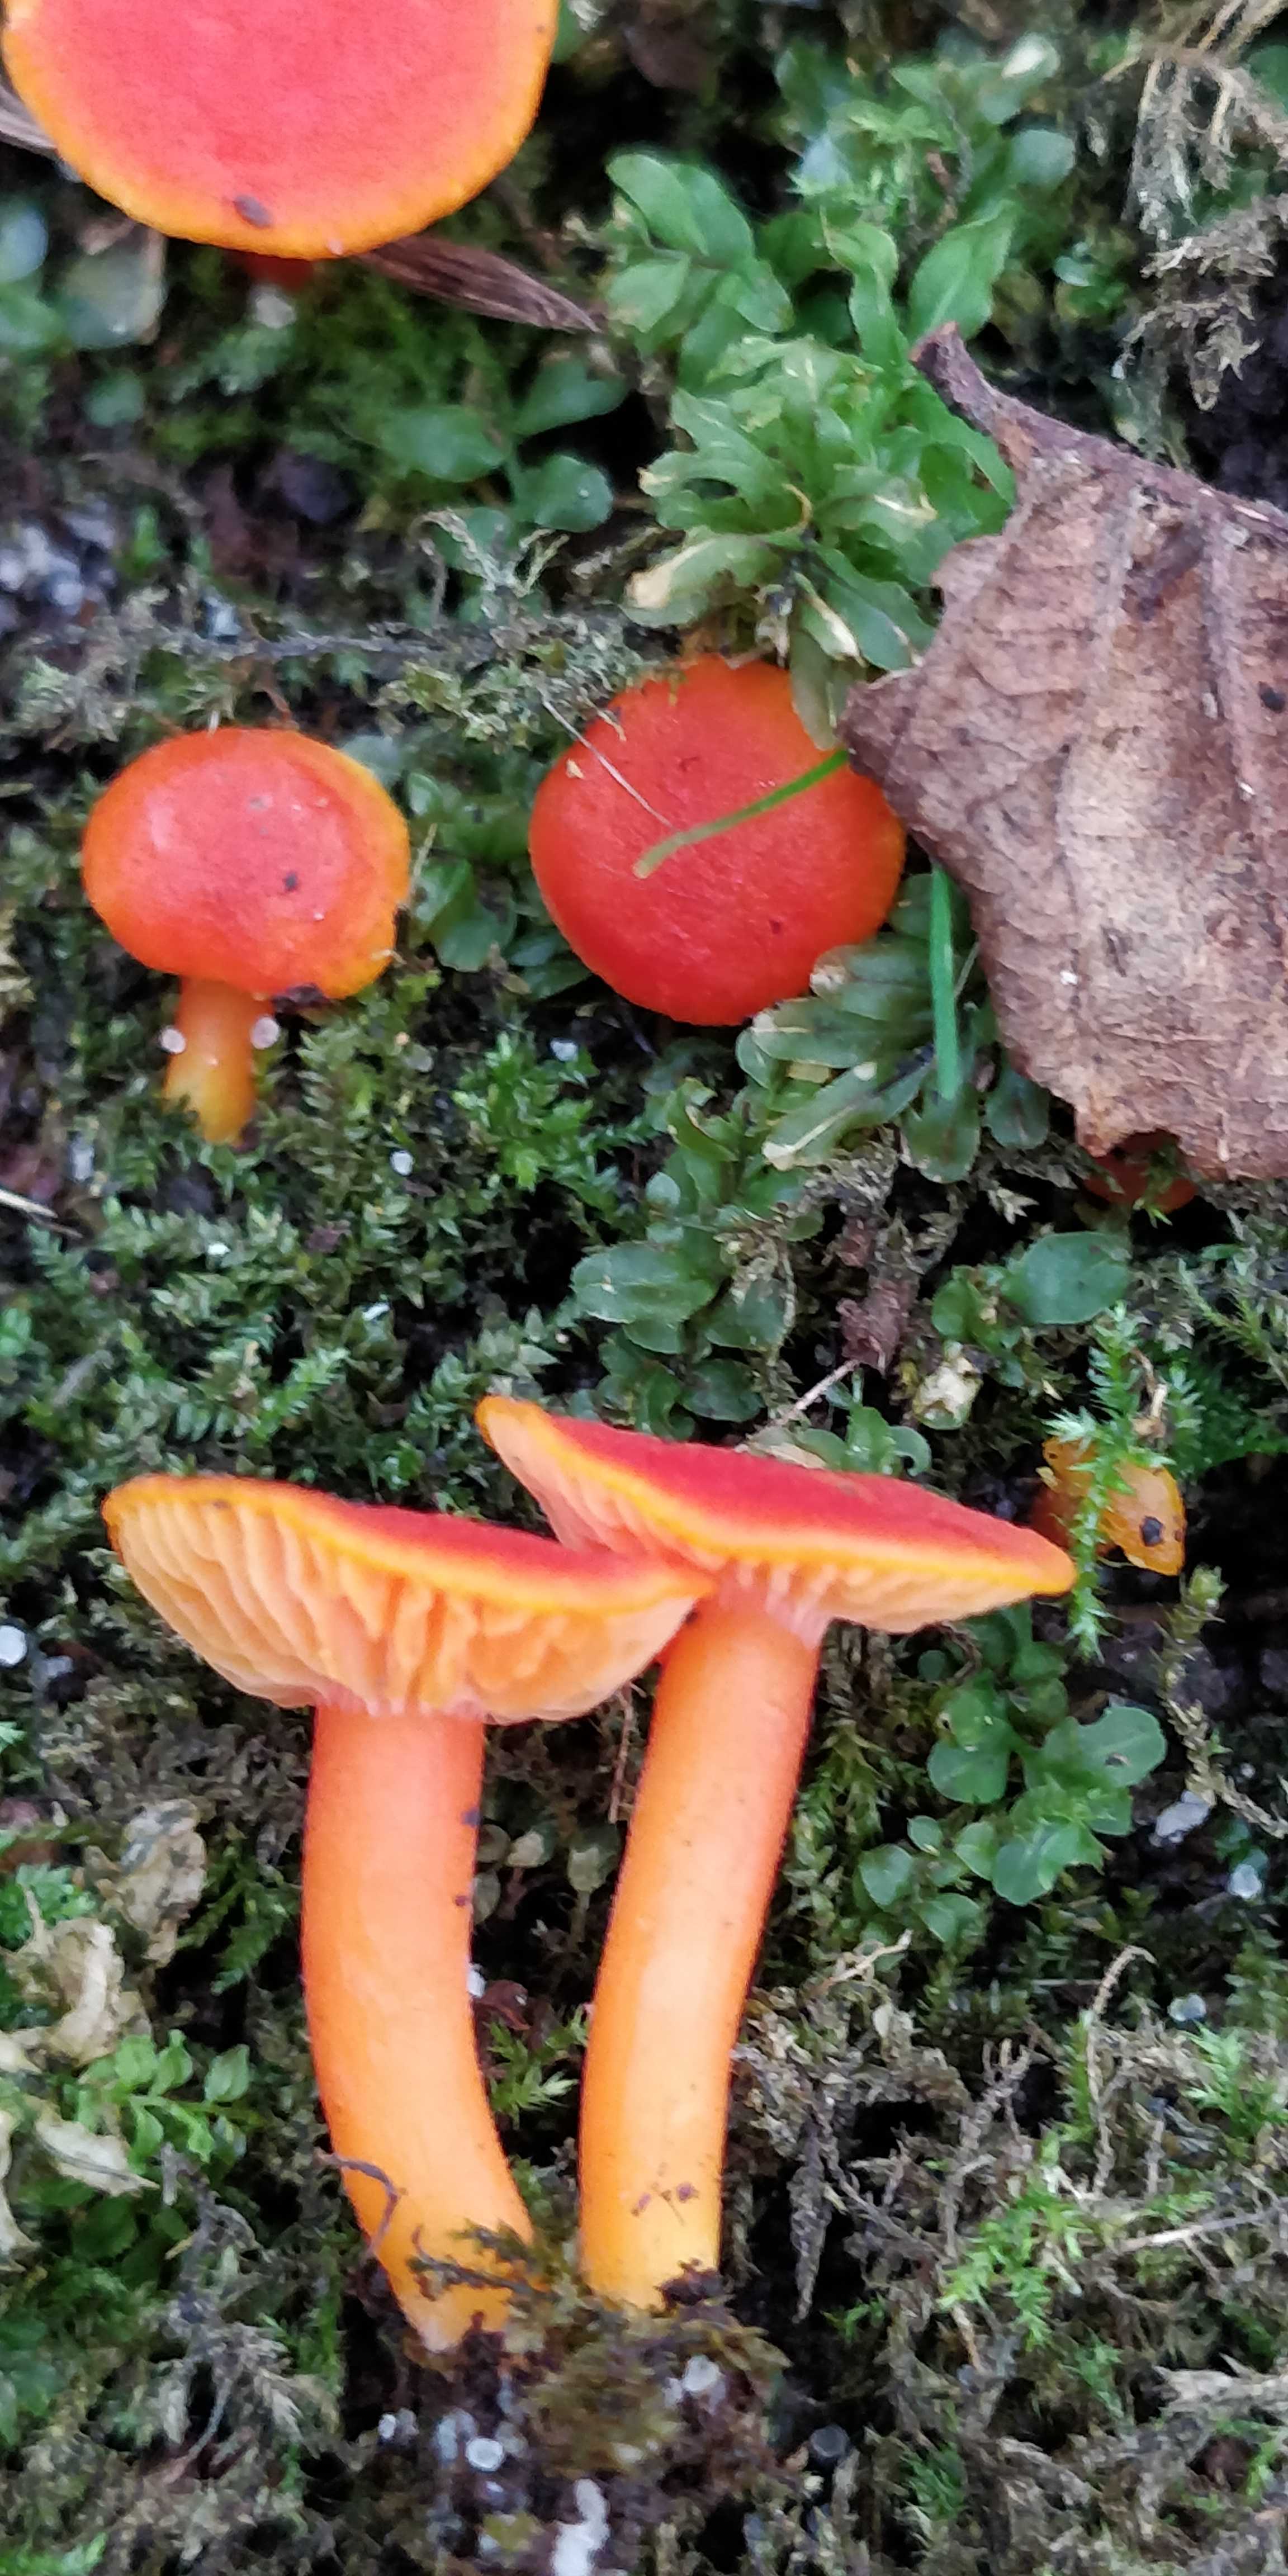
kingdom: Fungi
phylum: Basidiomycota
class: Agaricomycetes
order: Agaricales
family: Hygrophoraceae
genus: Hygrocybe
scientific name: Hygrocybe miniata
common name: mønje-vokshat
